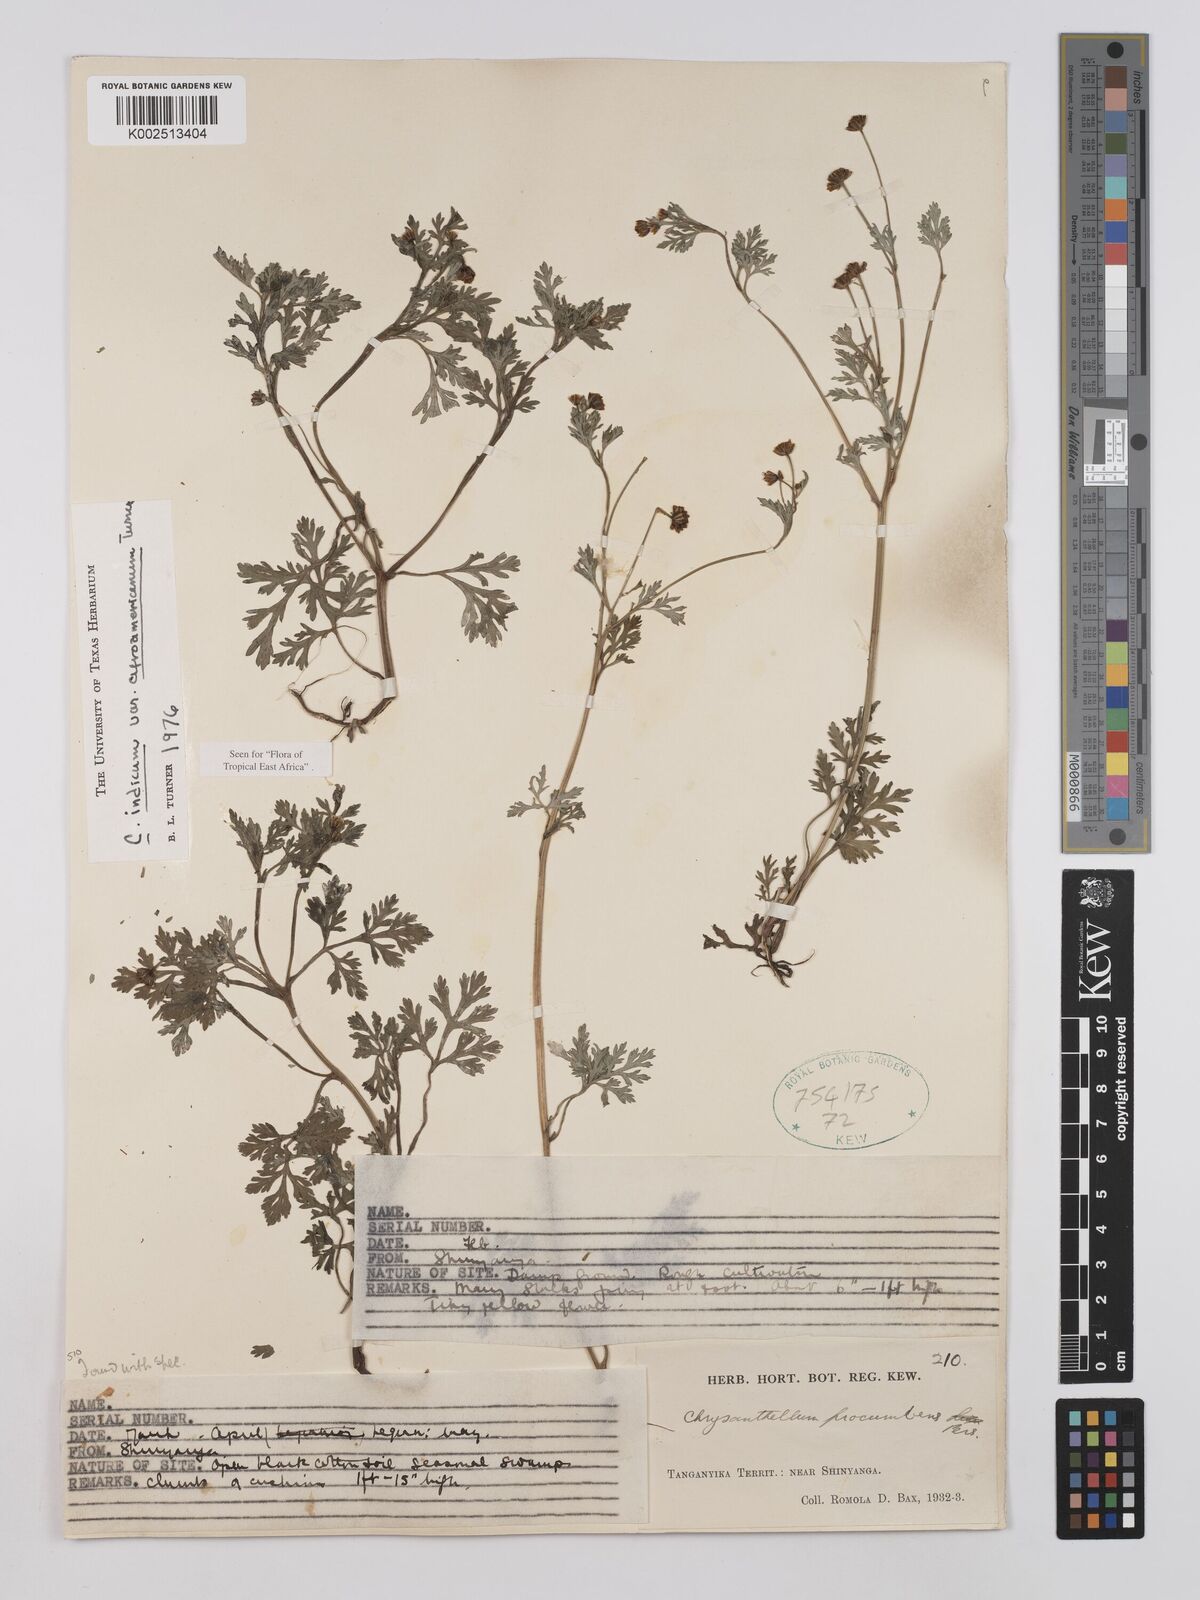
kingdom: Plantae
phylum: Tracheophyta
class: Magnoliopsida
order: Asterales
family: Asteraceae
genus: Chrysanthellum
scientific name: Chrysanthellum indicum
